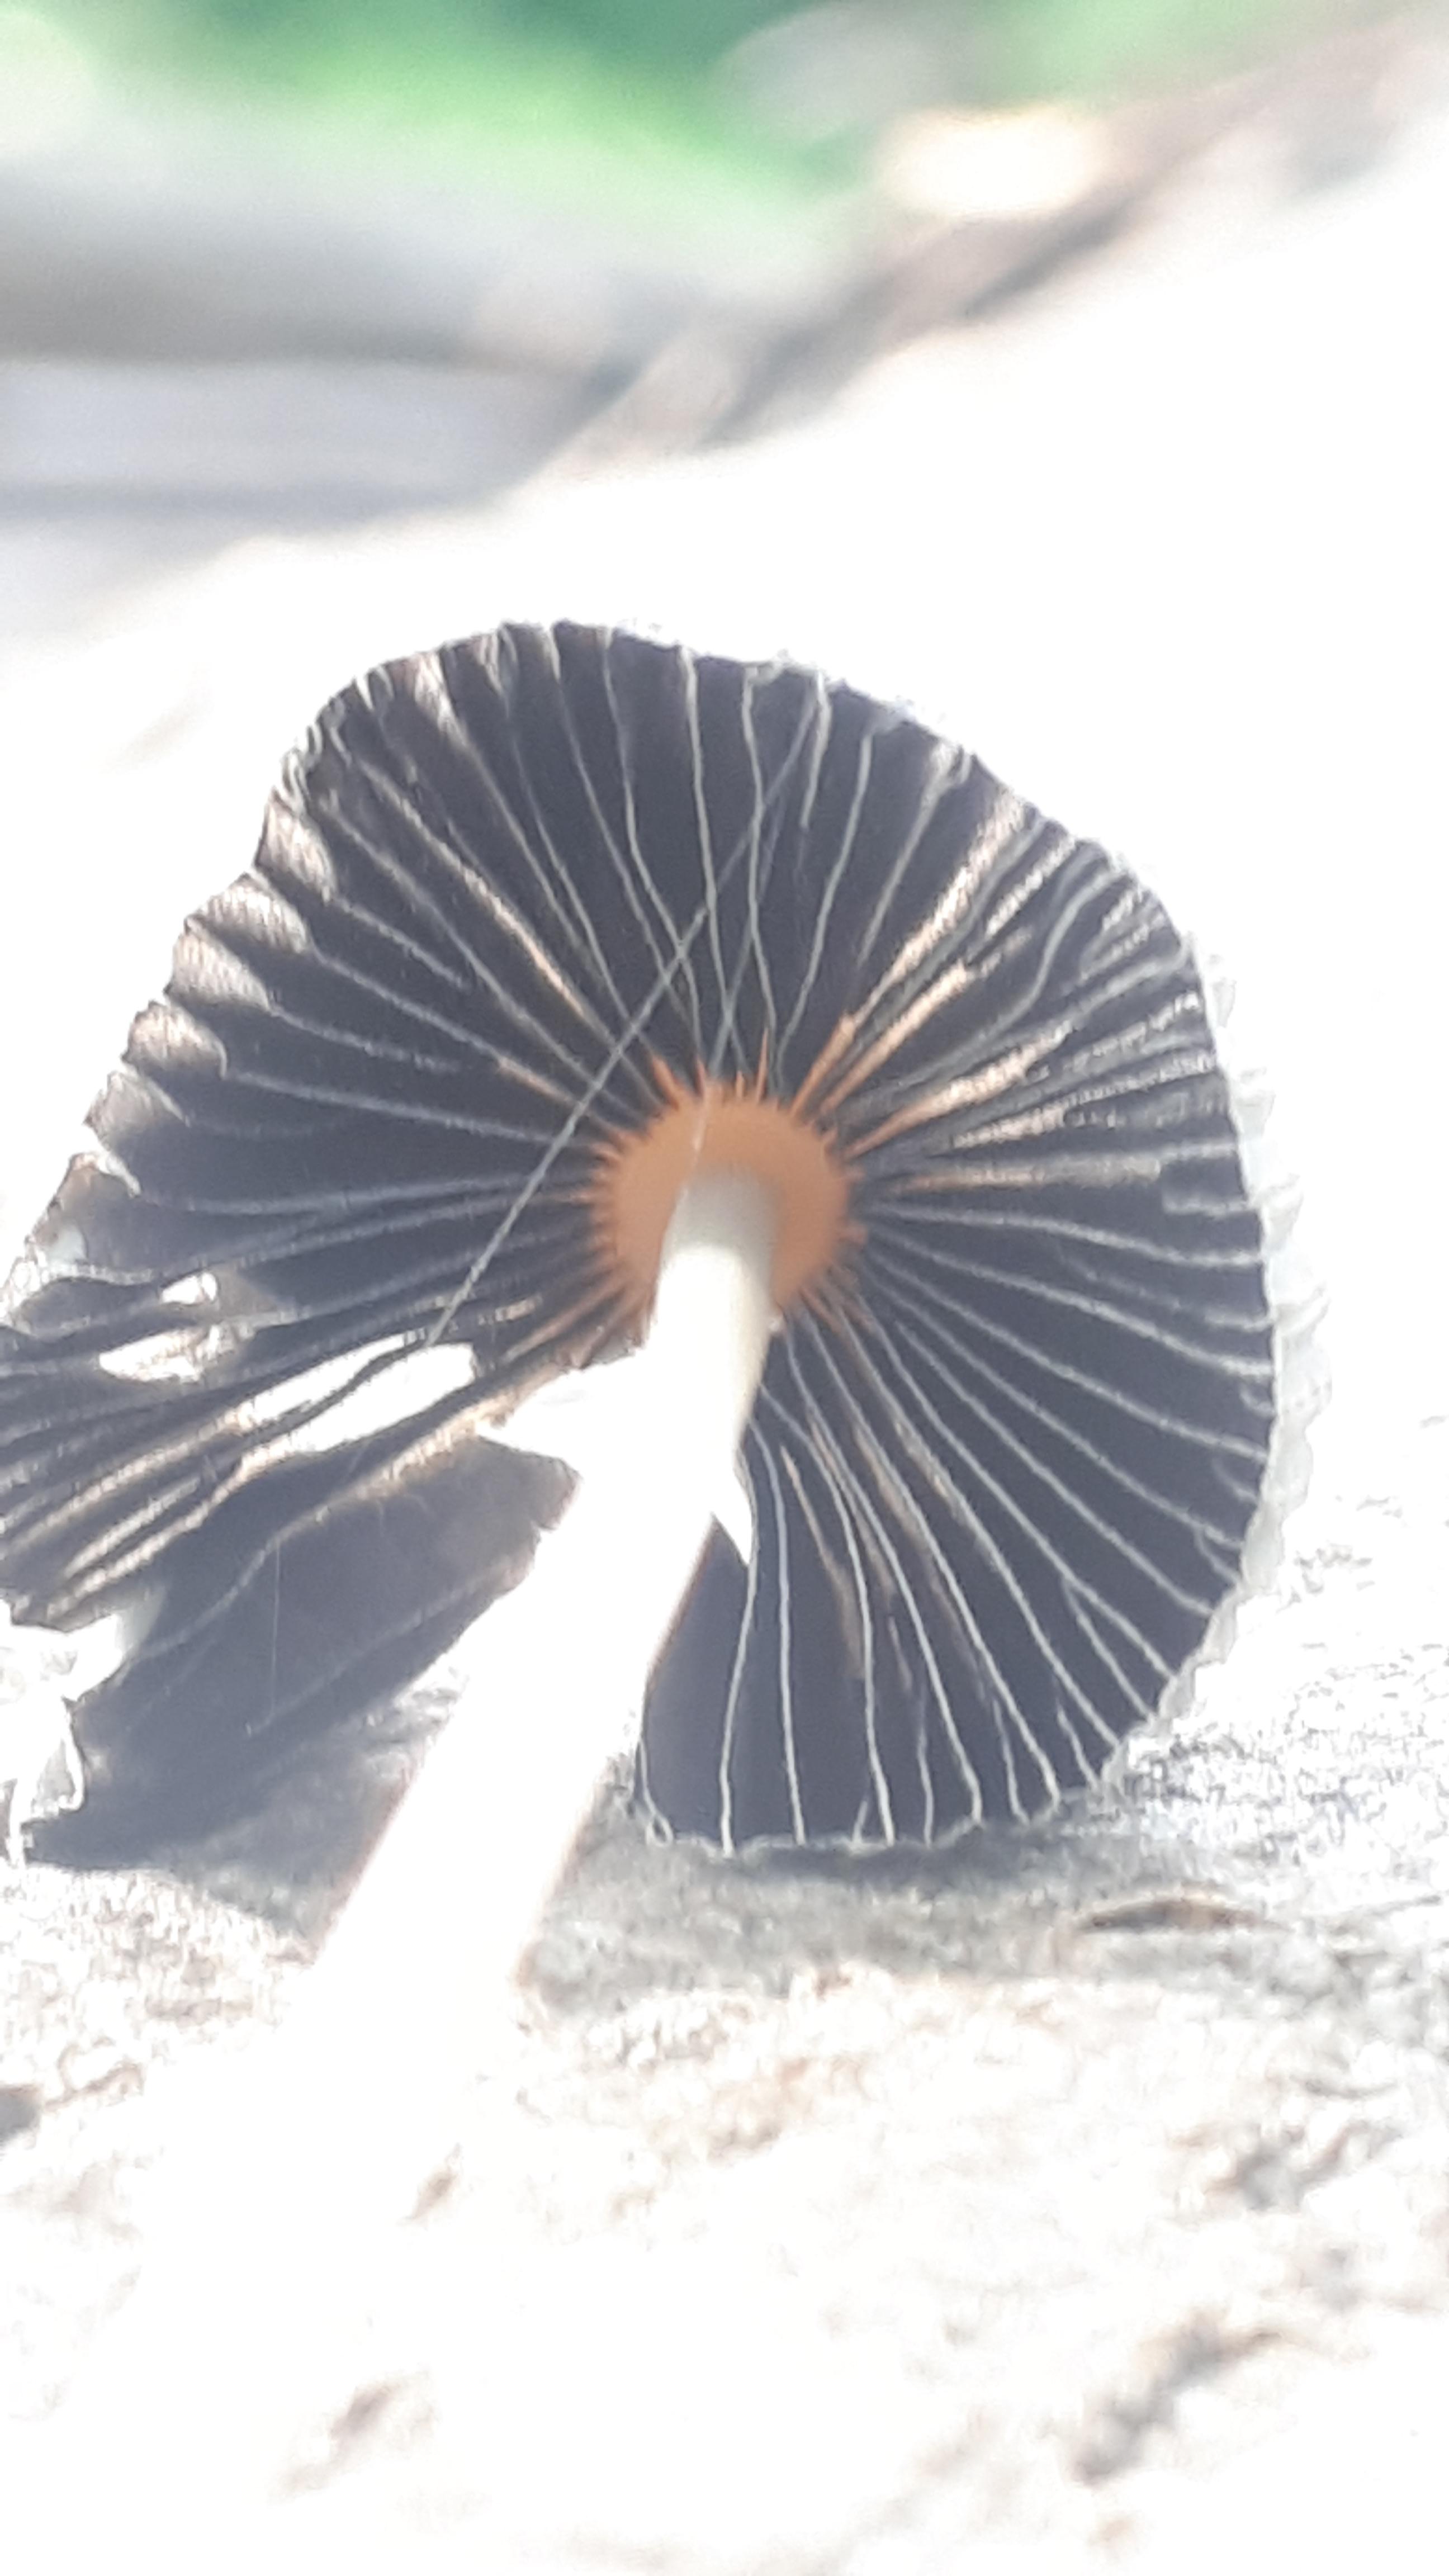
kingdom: Fungi
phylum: Basidiomycota
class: Agaricomycetes
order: Agaricales
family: Psathyrellaceae
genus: Parasola
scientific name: Parasola
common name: hjulhat
